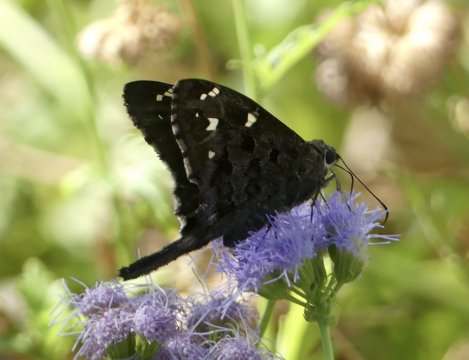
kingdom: Animalia
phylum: Arthropoda
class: Insecta
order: Lepidoptera
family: Hesperiidae
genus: Urbanus
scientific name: Urbanus dorantes
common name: Dorantes Longtail
